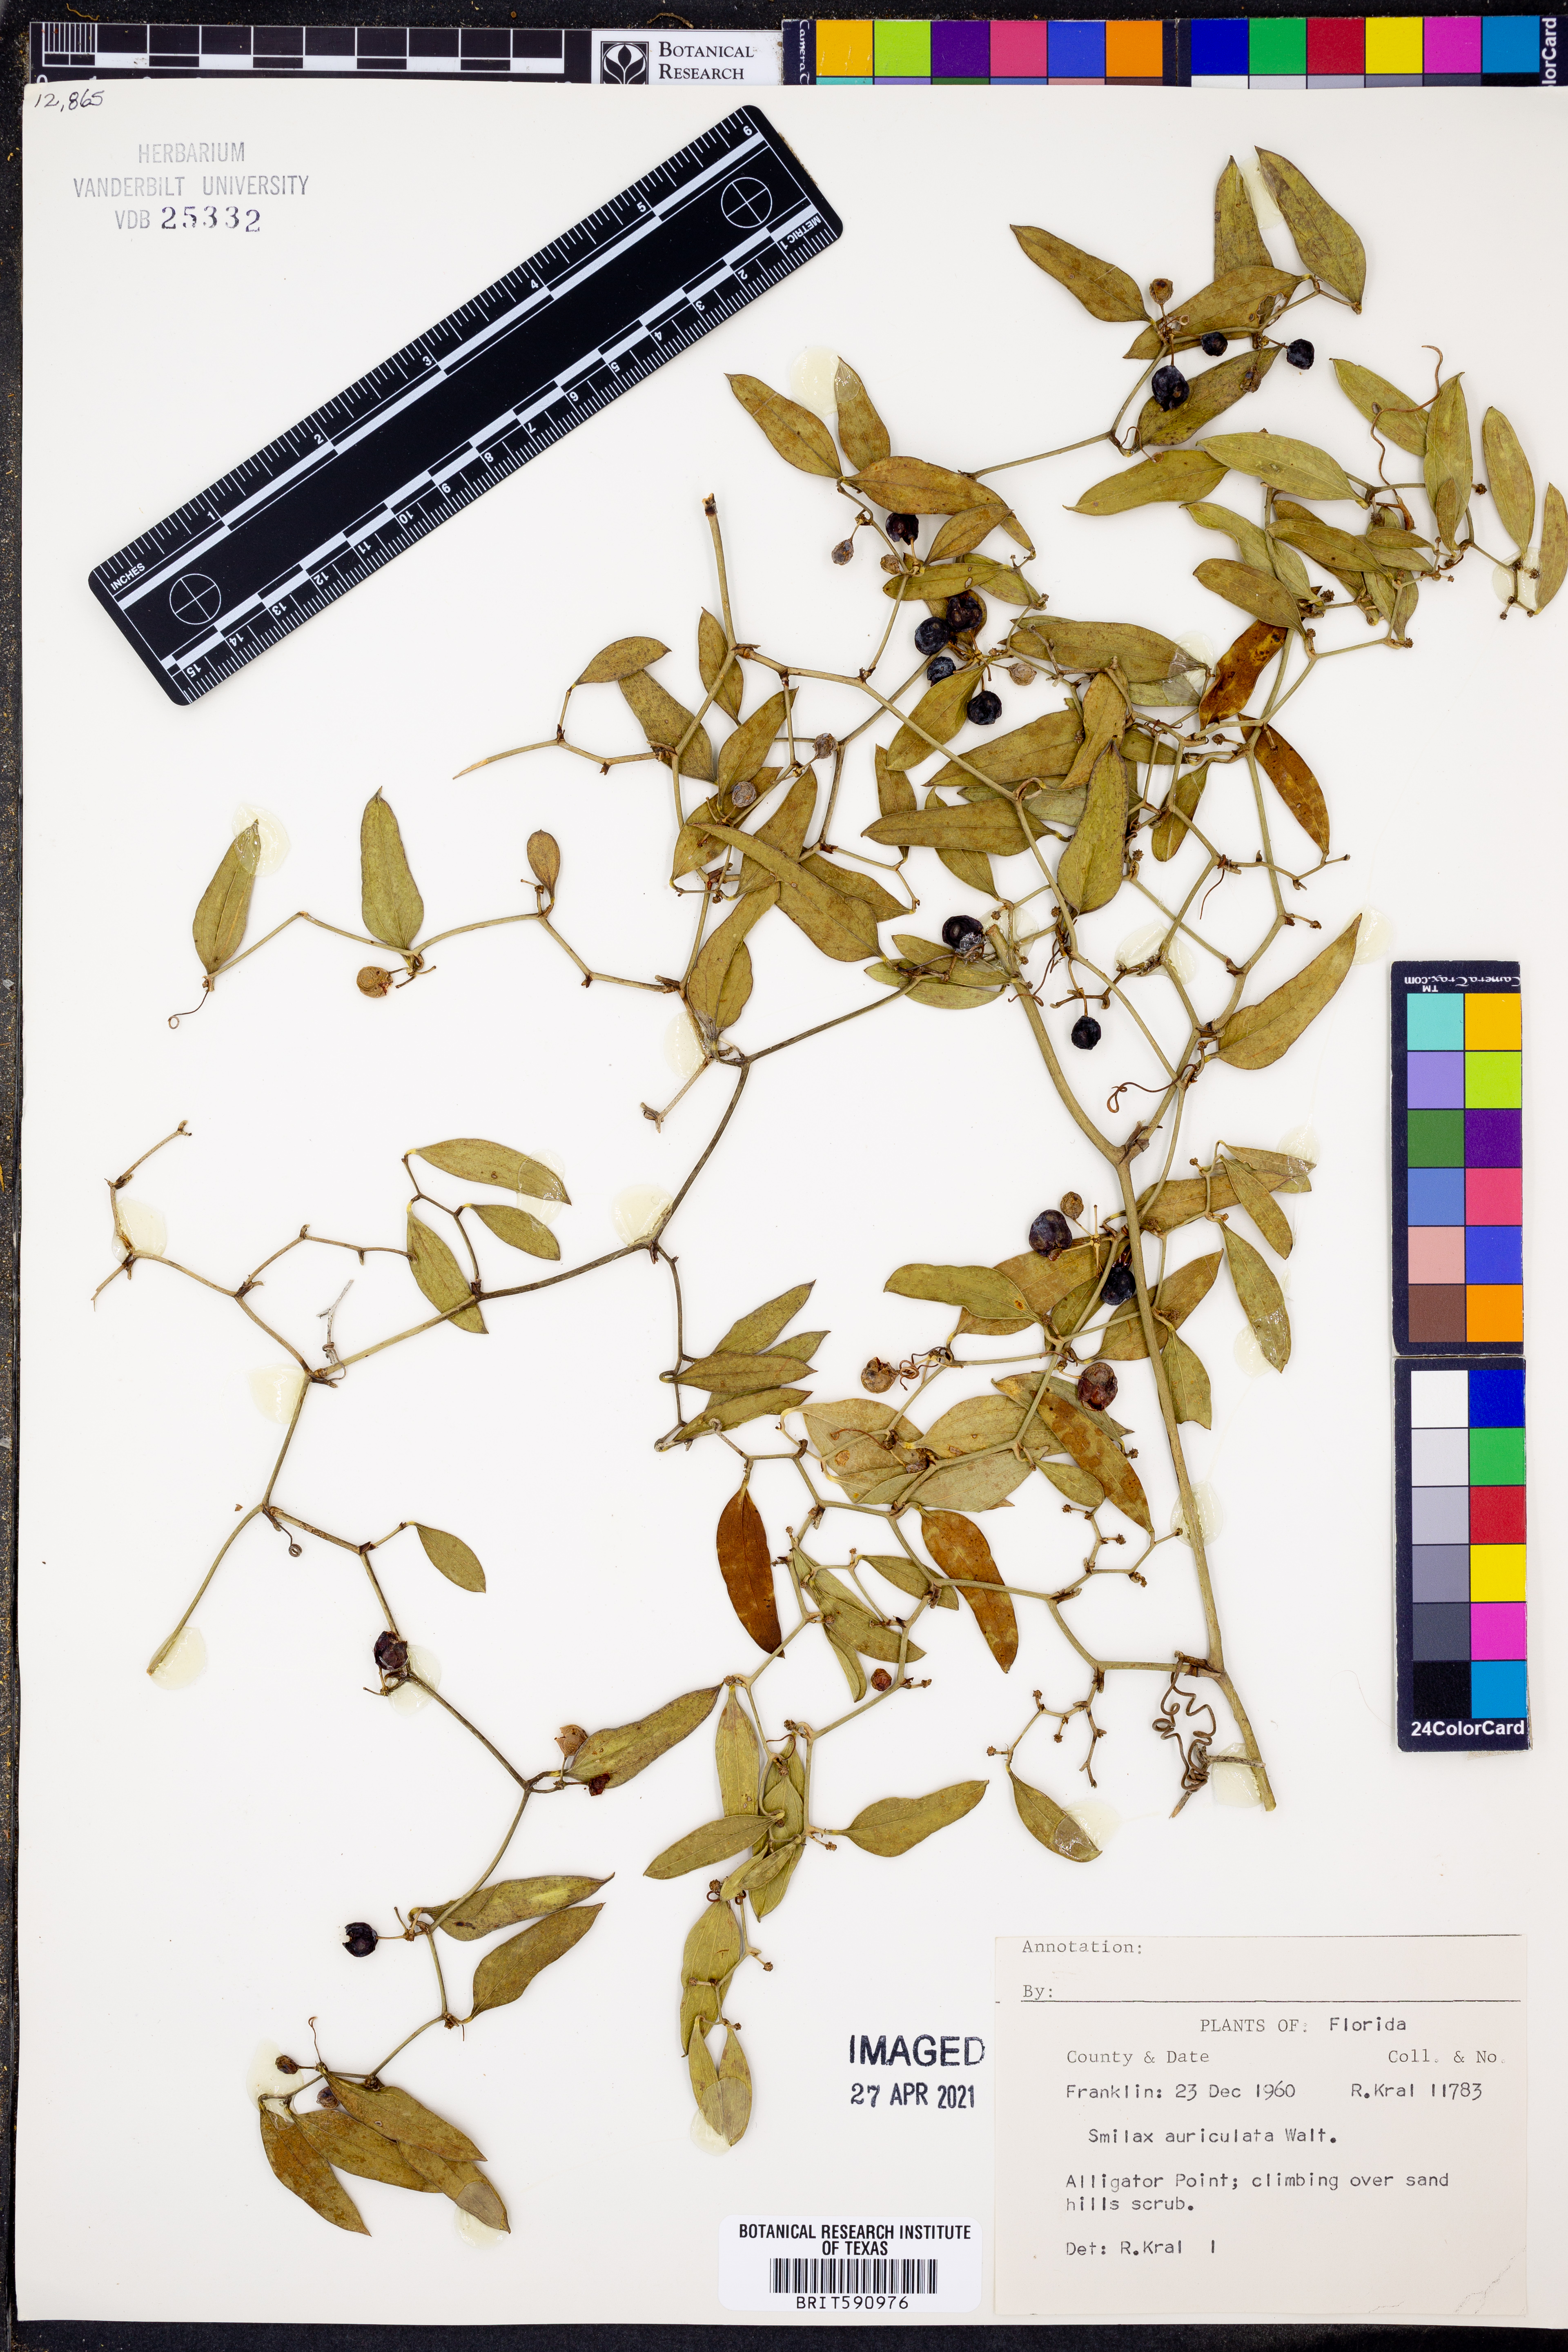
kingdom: Plantae
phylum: Tracheophyta
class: Liliopsida
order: Liliales
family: Smilacaceae
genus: Smilax
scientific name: Smilax auriculata
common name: Wild bamboo
